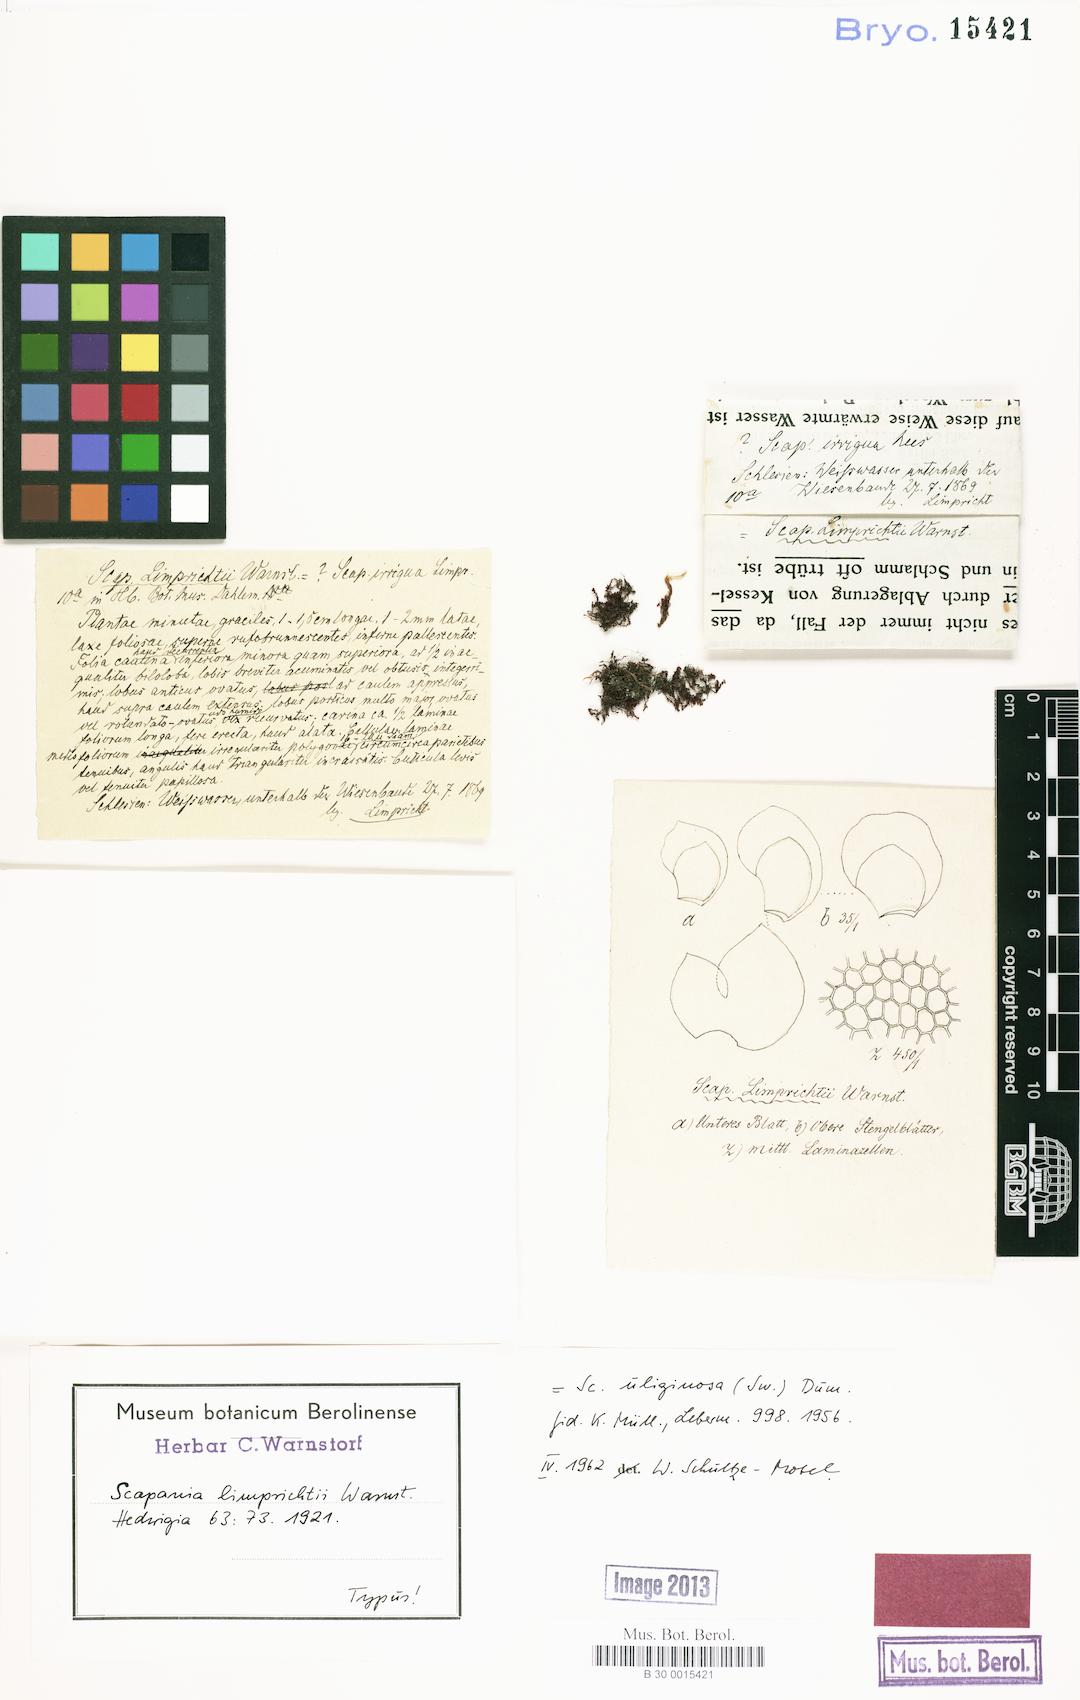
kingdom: Plantae
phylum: Marchantiophyta
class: Jungermanniopsida
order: Jungermanniales
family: Scapaniaceae
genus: Scapania
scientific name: Scapania uliginosa
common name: Marsh earwort
